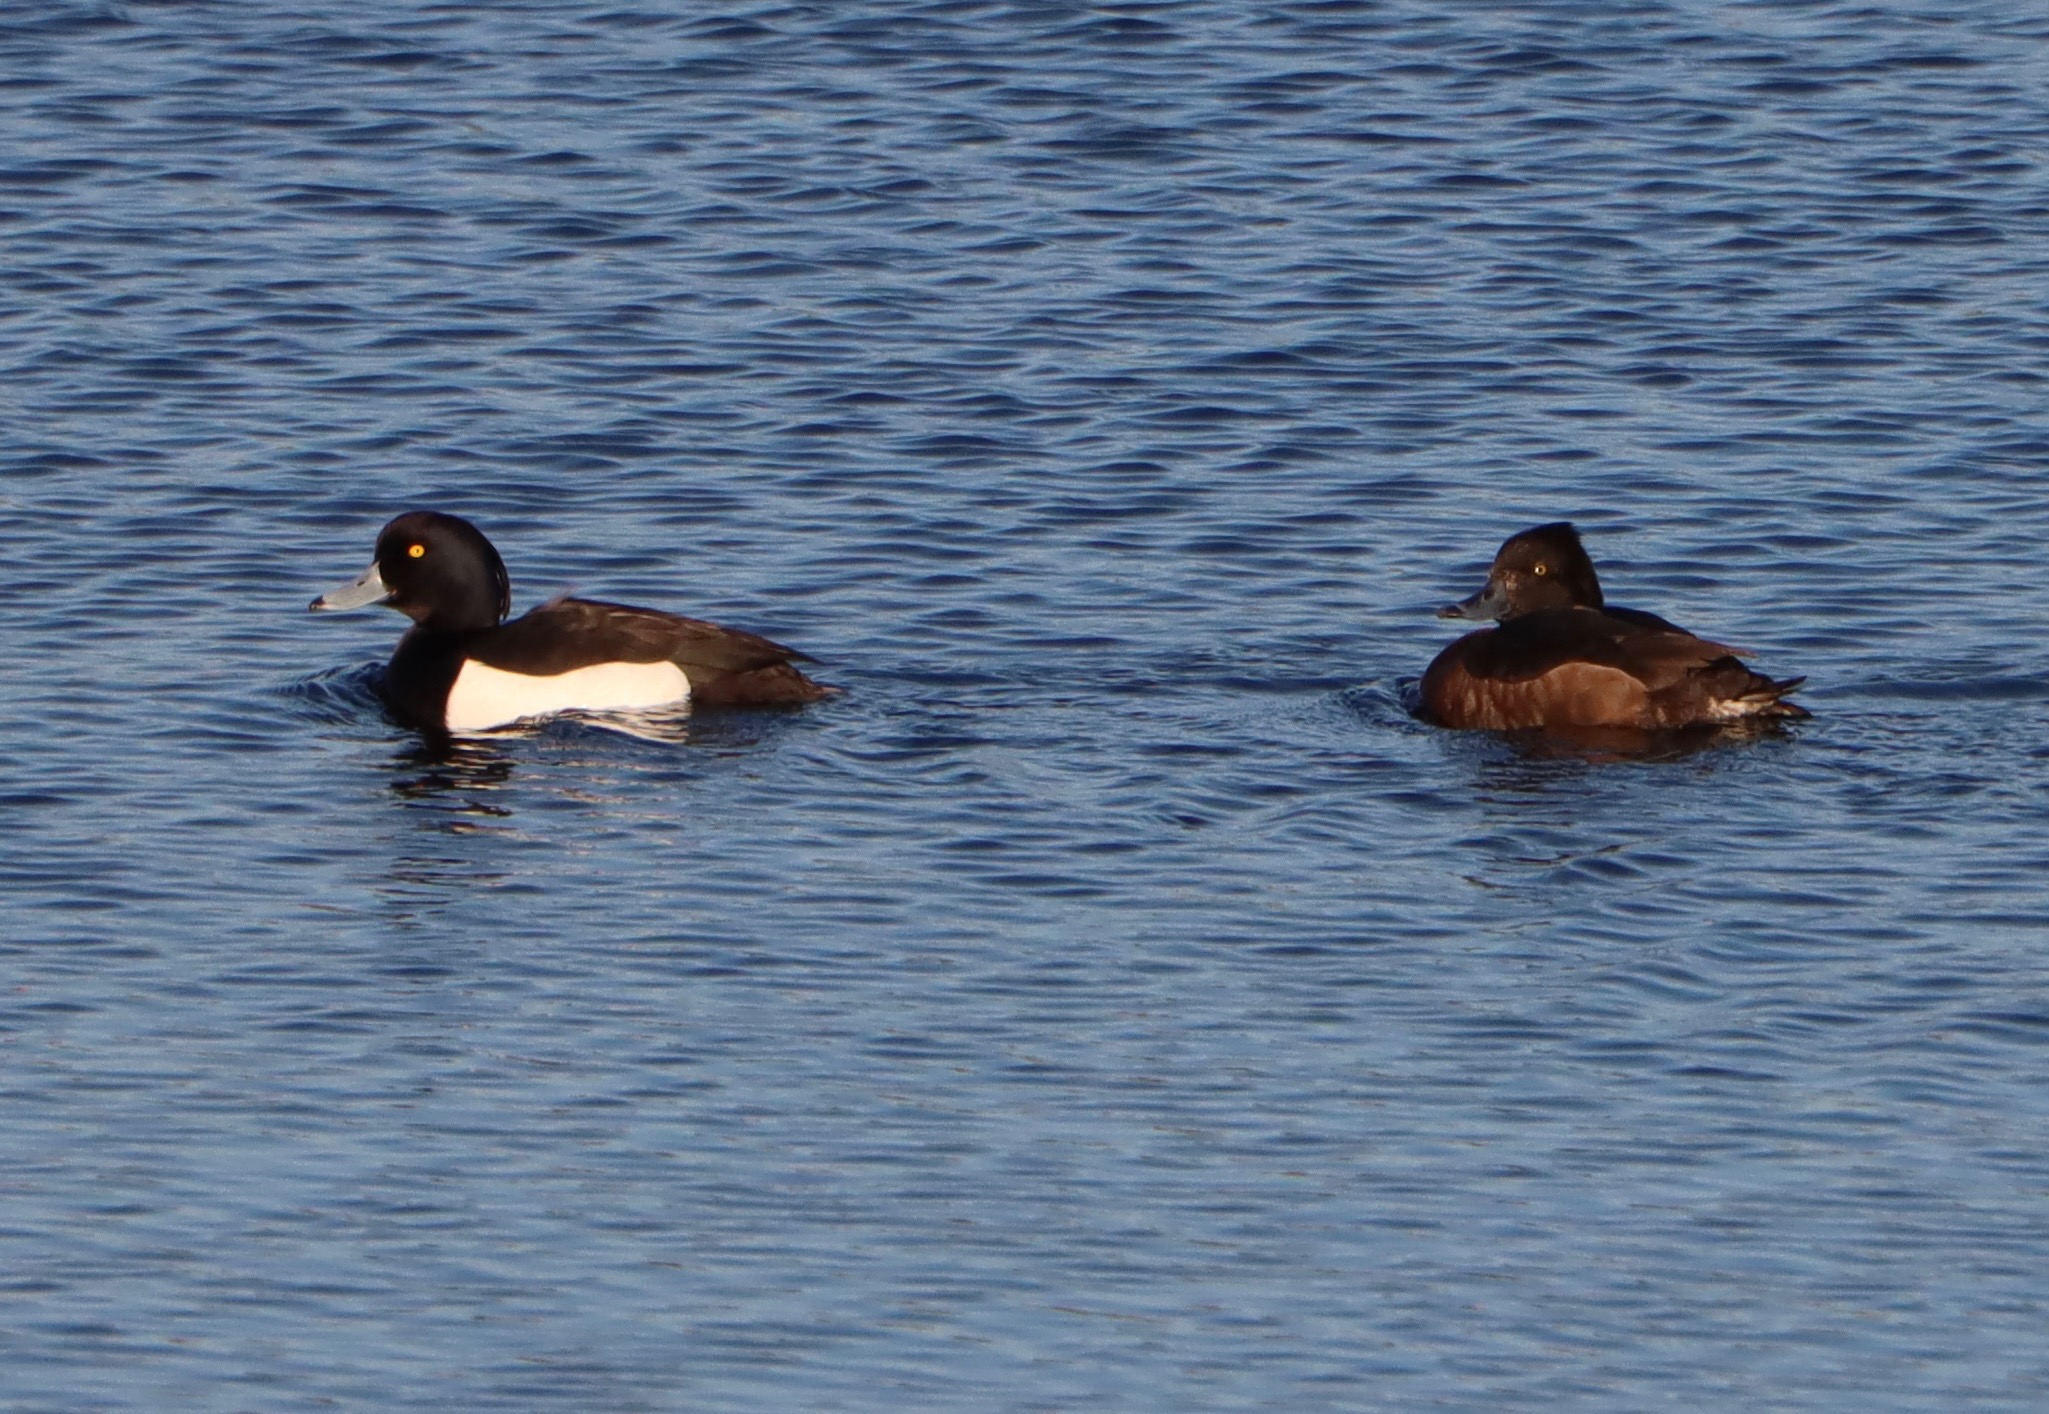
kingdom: Animalia
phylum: Chordata
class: Aves
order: Anseriformes
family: Anatidae
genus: Aythya
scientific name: Aythya fuligula
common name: Troldand
